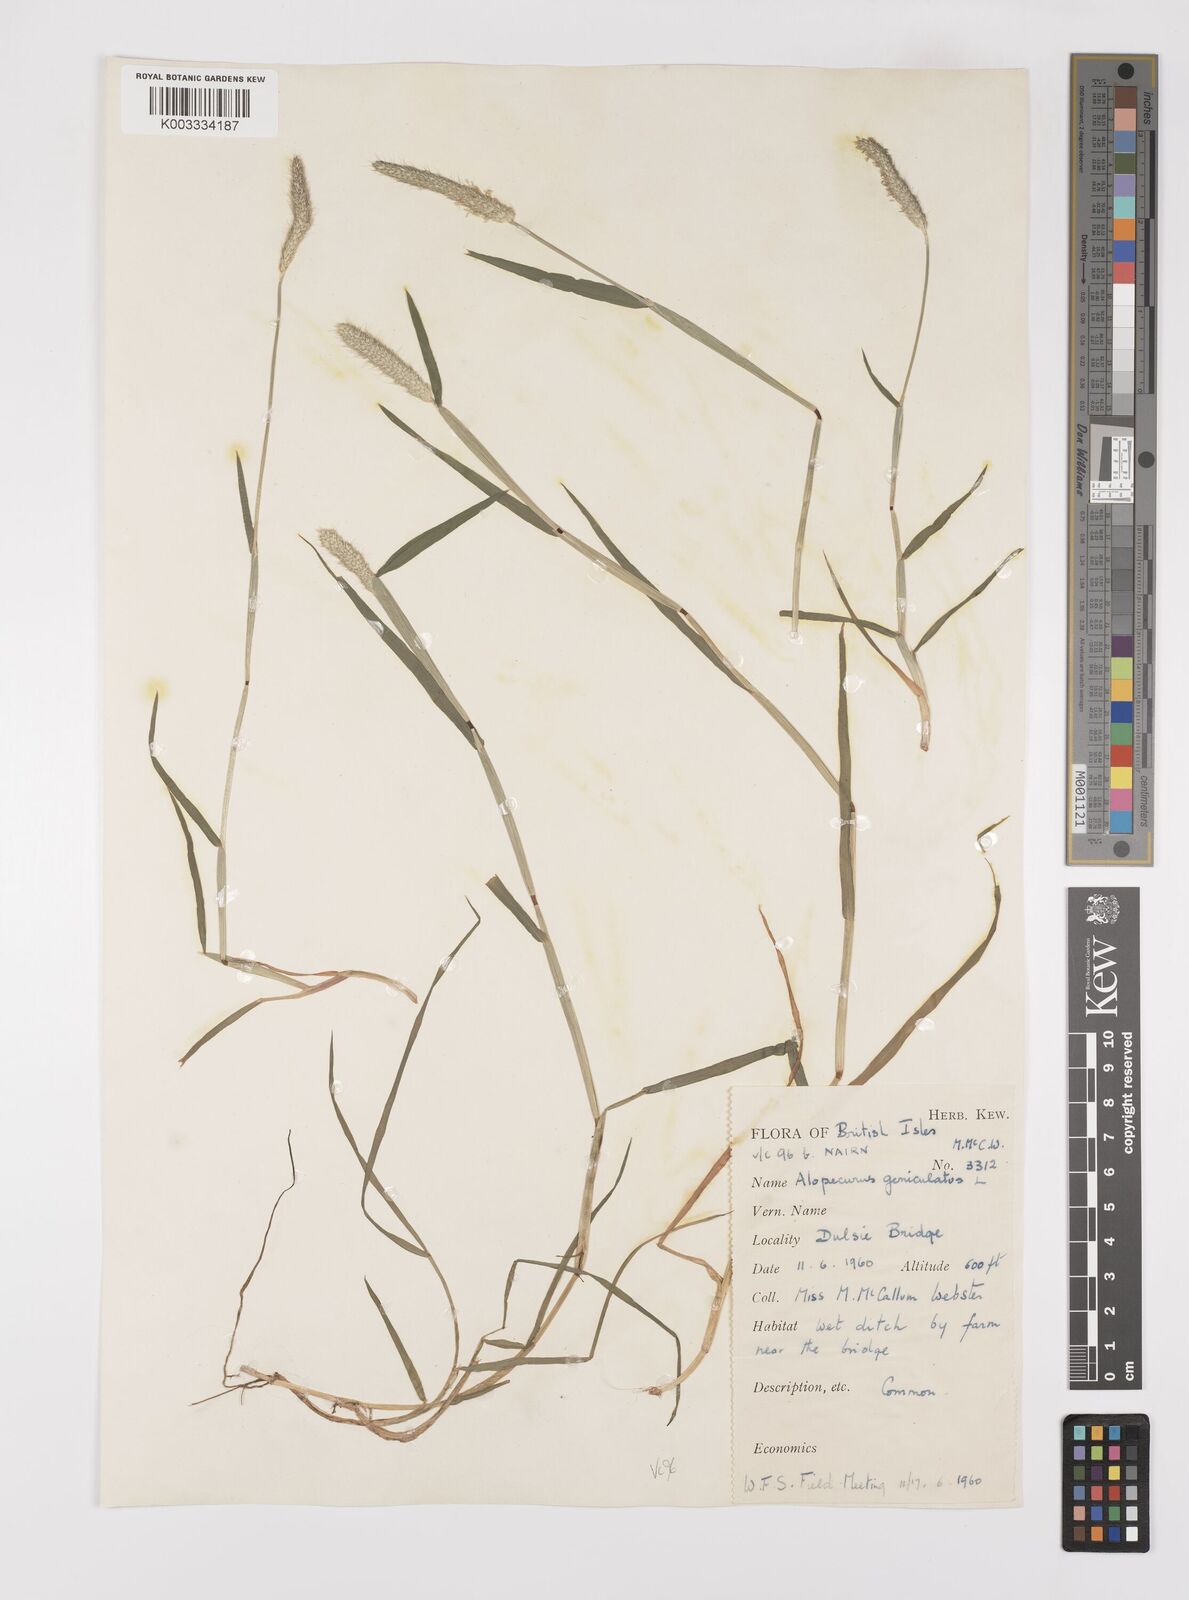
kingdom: Plantae
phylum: Tracheophyta
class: Liliopsida
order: Poales
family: Poaceae
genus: Alopecurus
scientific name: Alopecurus geniculatus
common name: Water foxtail
